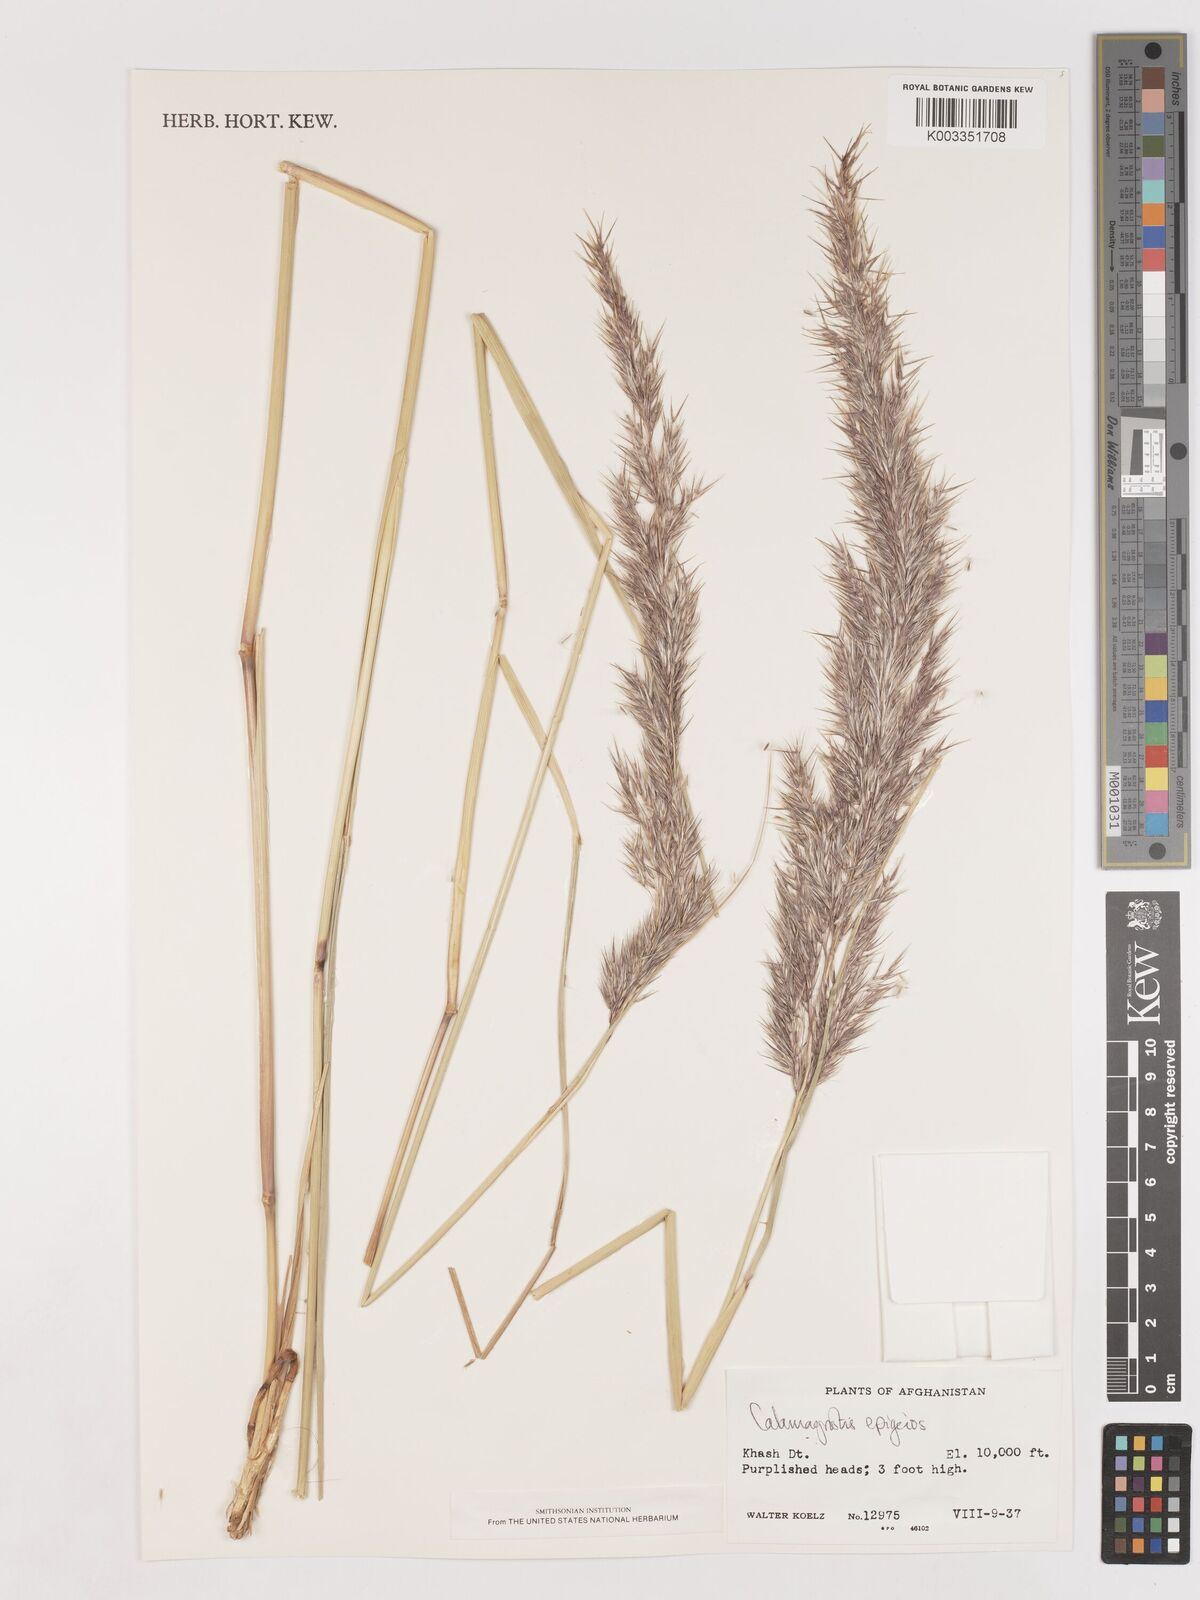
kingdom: Plantae
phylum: Tracheophyta
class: Liliopsida
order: Poales
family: Poaceae
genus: Calamagrostis
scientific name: Calamagrostis epigejos
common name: Wood small-reed
